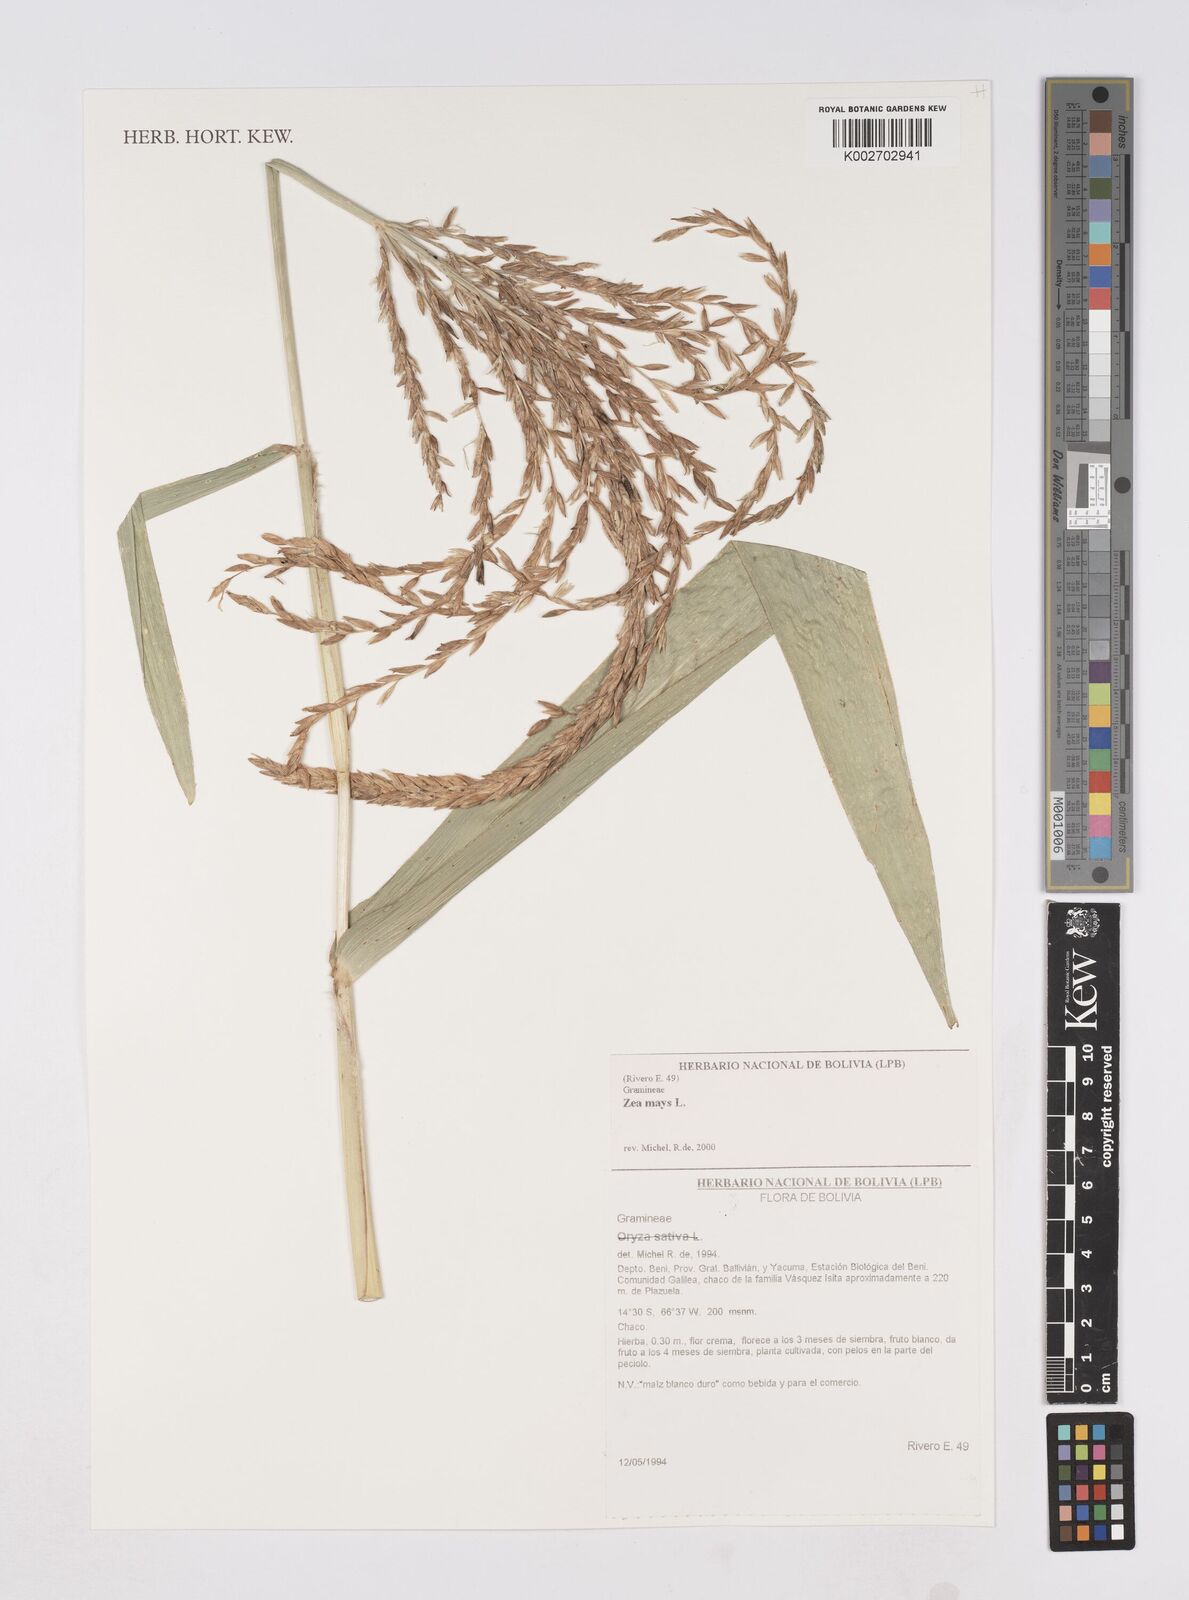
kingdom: Plantae
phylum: Tracheophyta
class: Liliopsida
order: Poales
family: Poaceae
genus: Zea
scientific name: Zea mays
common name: Maize
